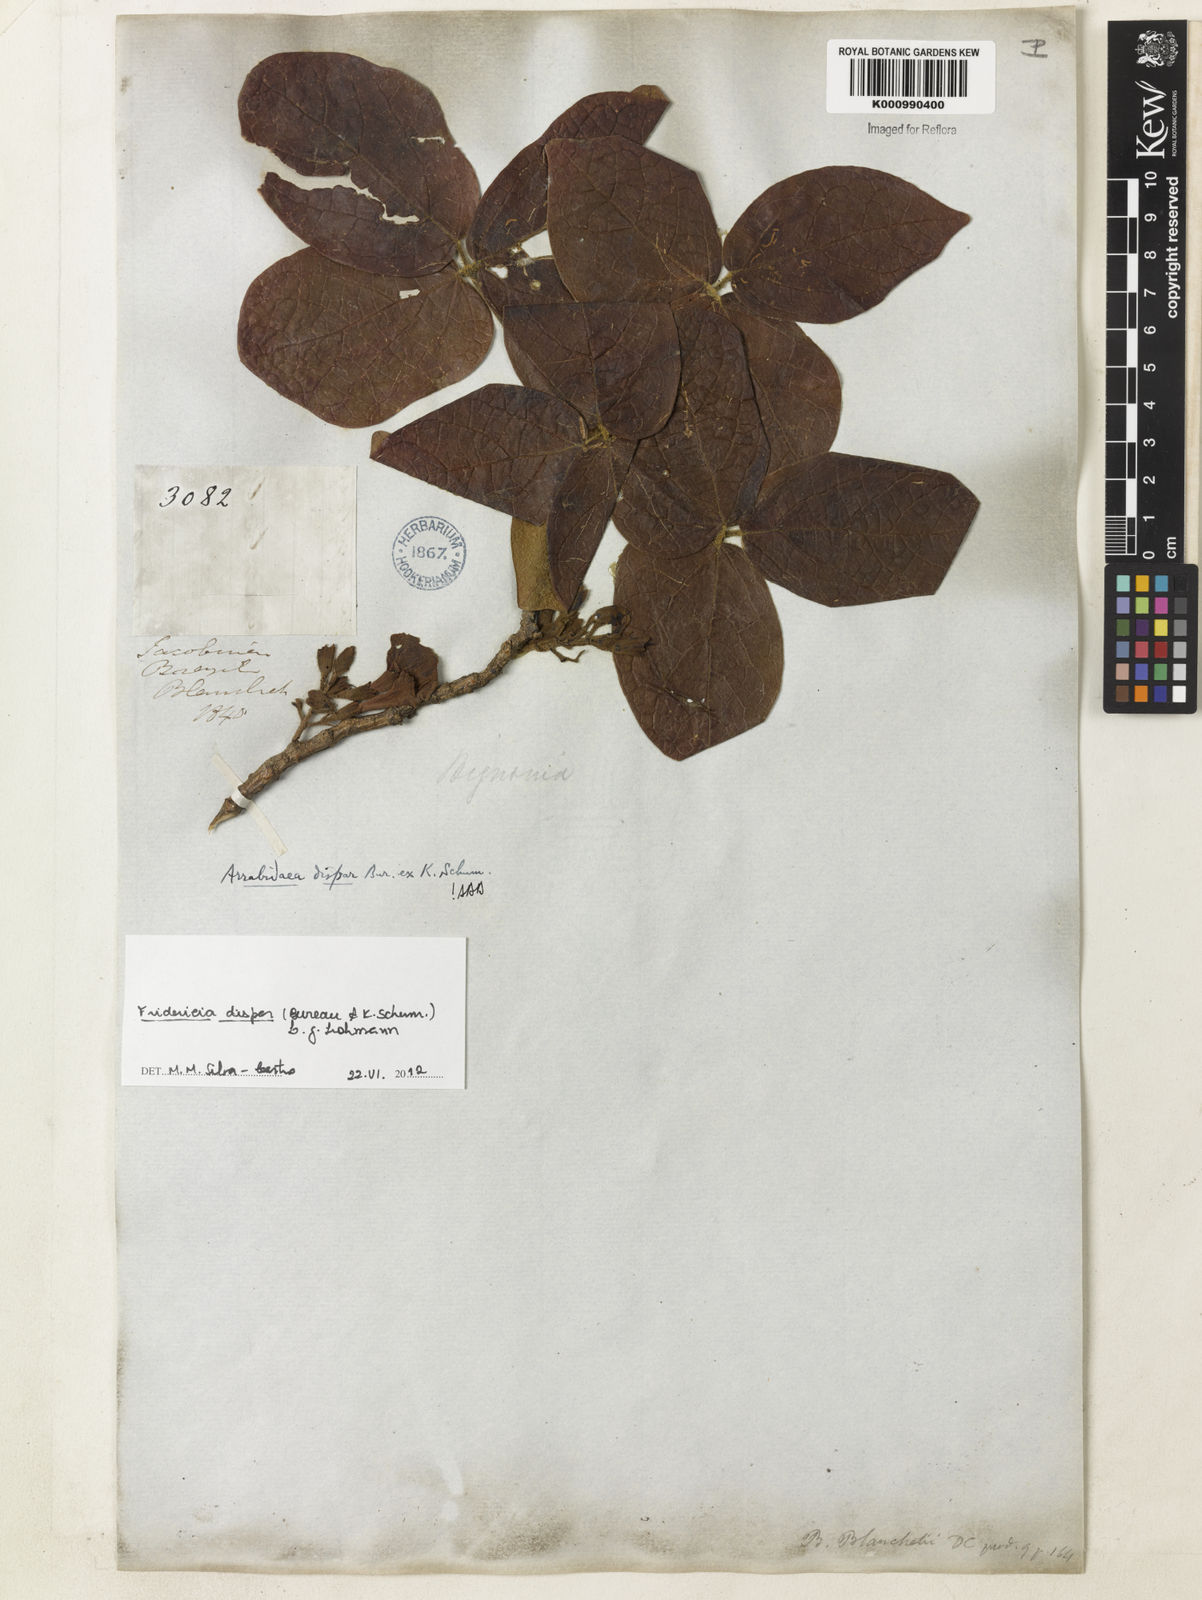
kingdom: Plantae
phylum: Tracheophyta
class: Magnoliopsida
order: Lamiales
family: Bignoniaceae
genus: Fridericia
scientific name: Fridericia dispar
